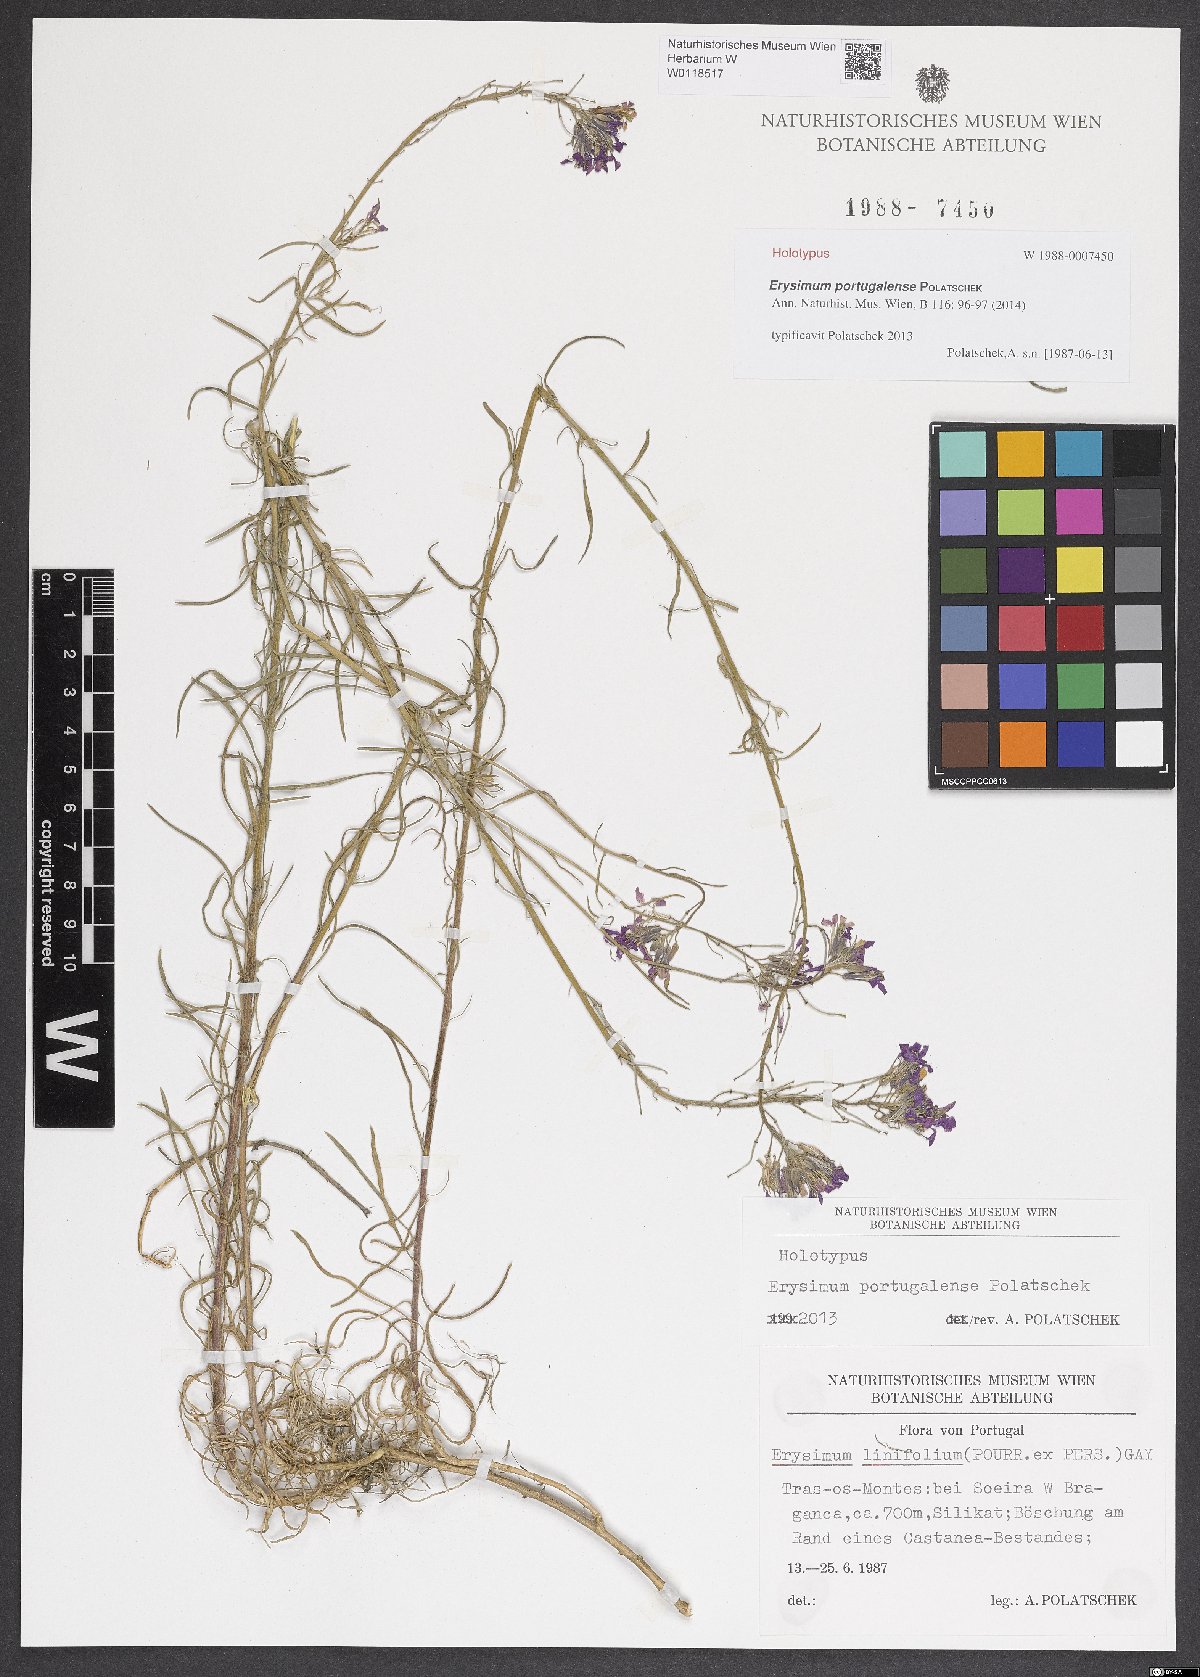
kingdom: Plantae
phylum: Tracheophyta
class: Magnoliopsida
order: Brassicales
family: Brassicaceae
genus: Erysimum
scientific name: Erysimum portugalense
